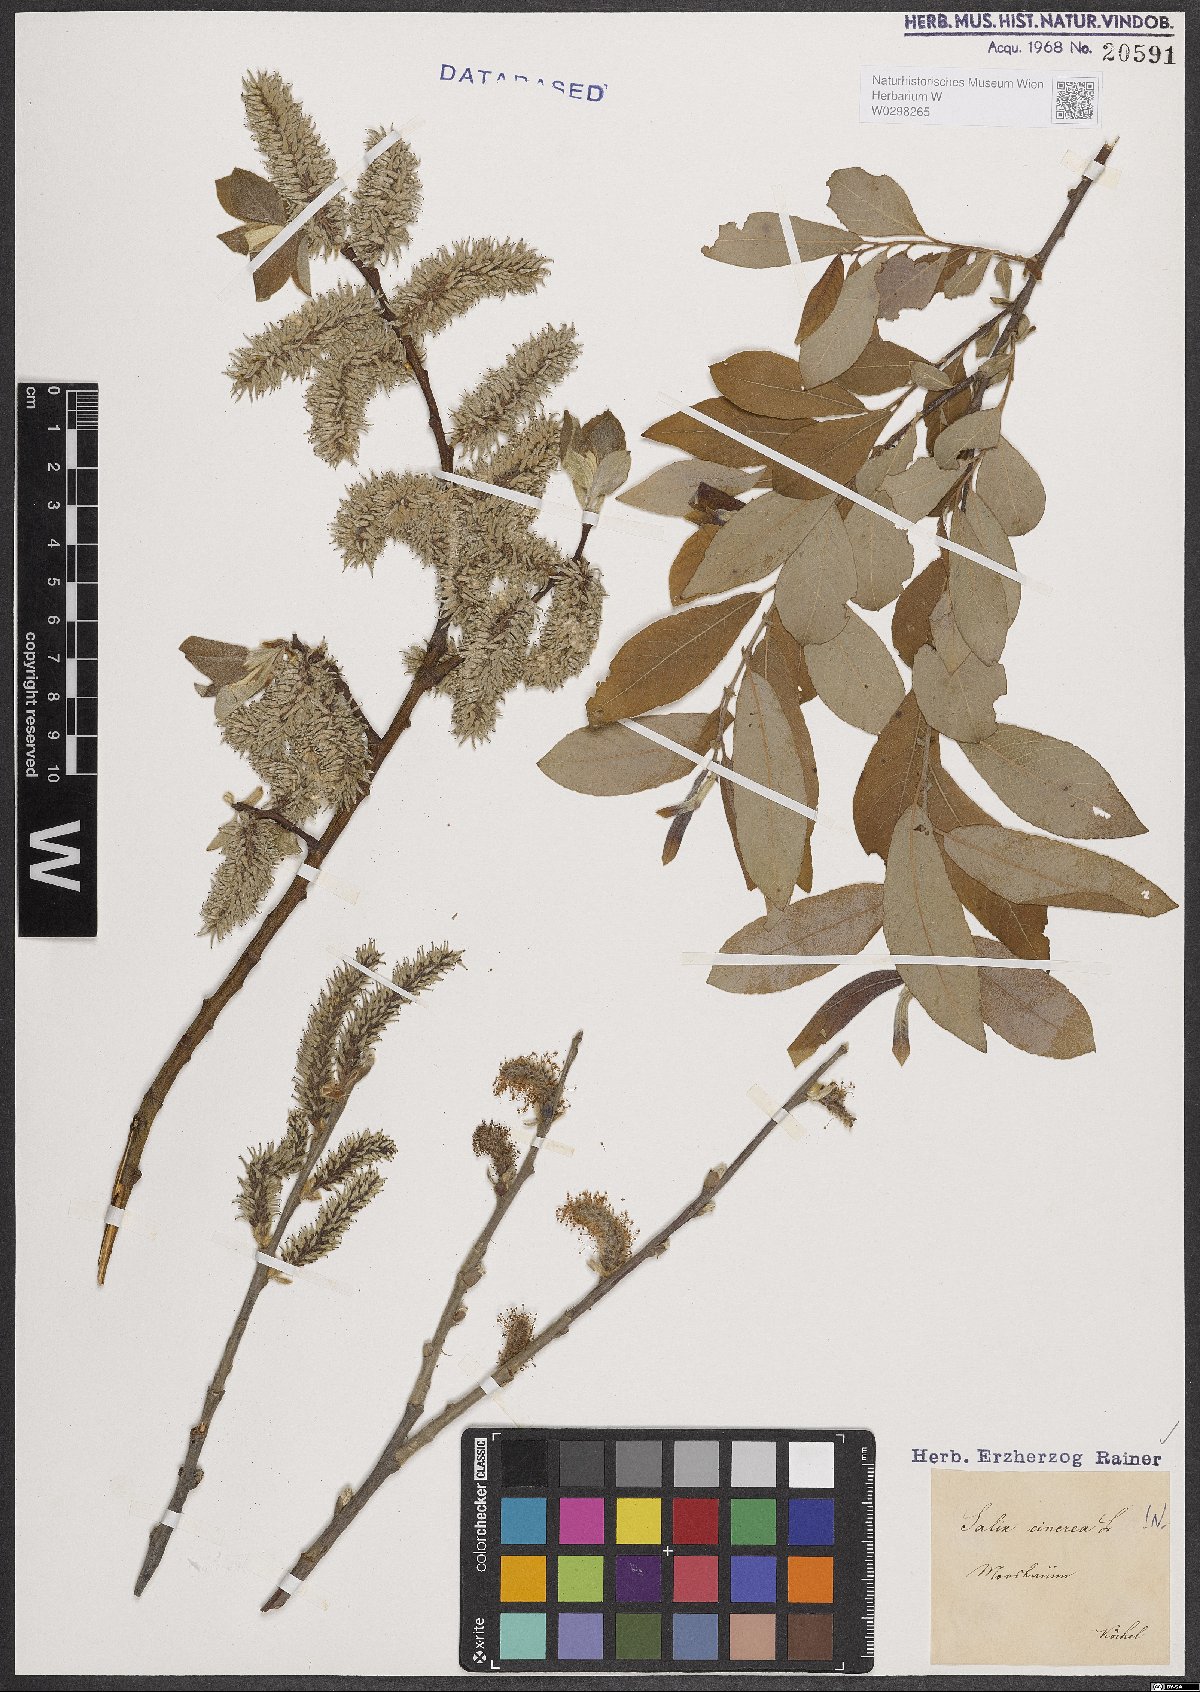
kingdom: Plantae
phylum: Tracheophyta
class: Magnoliopsida
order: Malpighiales
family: Salicaceae
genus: Salix
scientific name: Salix cinerea
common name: Common sallow
